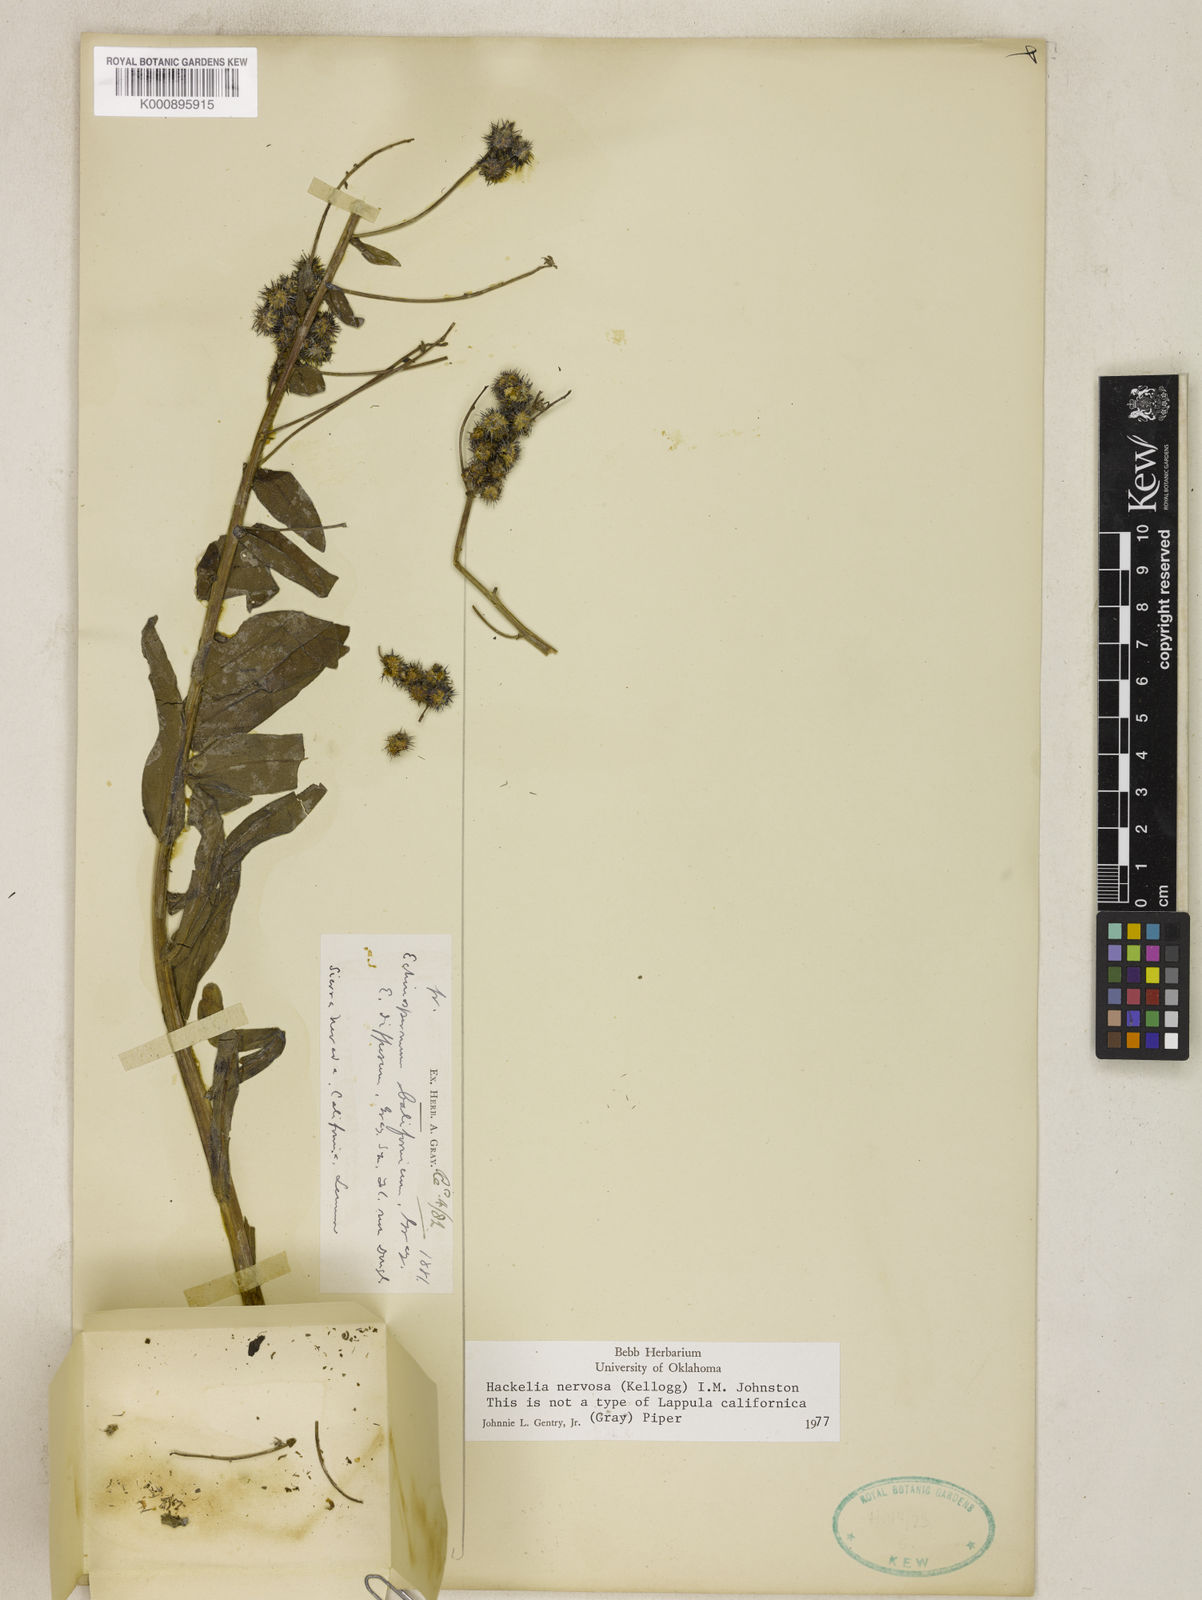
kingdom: Plantae
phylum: Tracheophyta
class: Magnoliopsida
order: Boraginales
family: Boraginaceae
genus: Hackelia
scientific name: Hackelia californica
